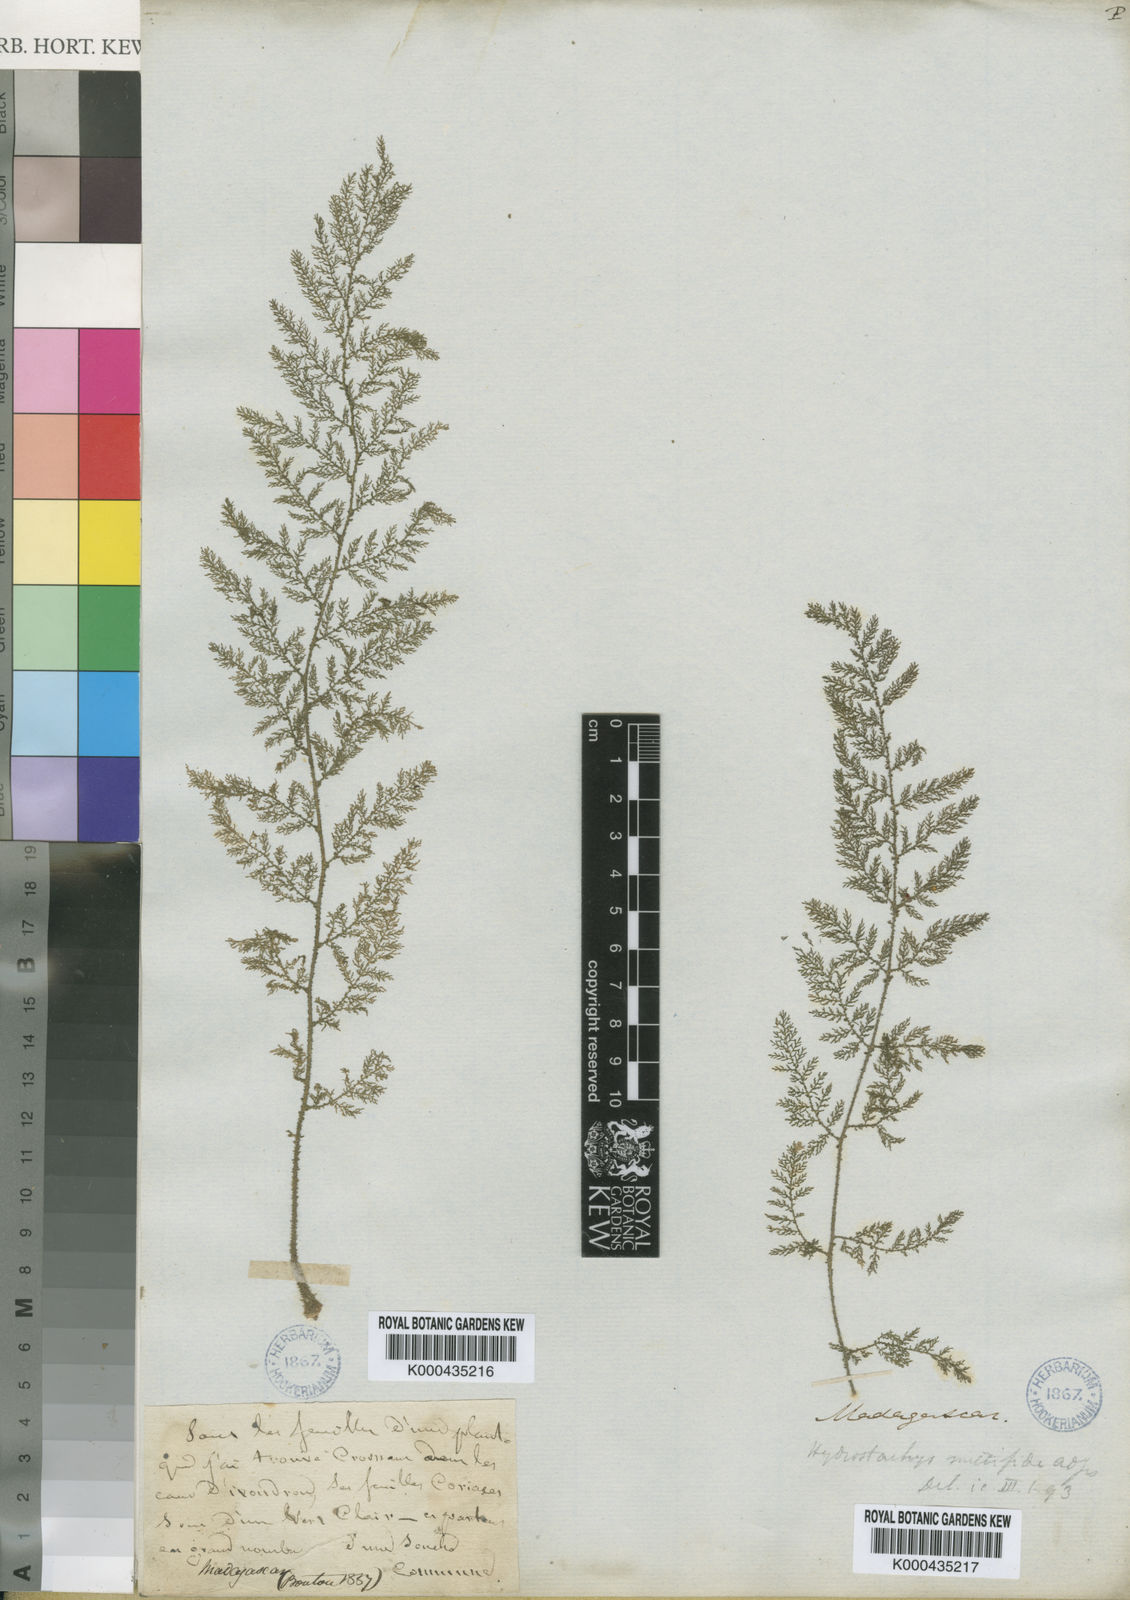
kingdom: Plantae
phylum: Tracheophyta
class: Magnoliopsida
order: Cornales
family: Hydrostachyaceae
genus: Hydrostachys
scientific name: Hydrostachys multifida
